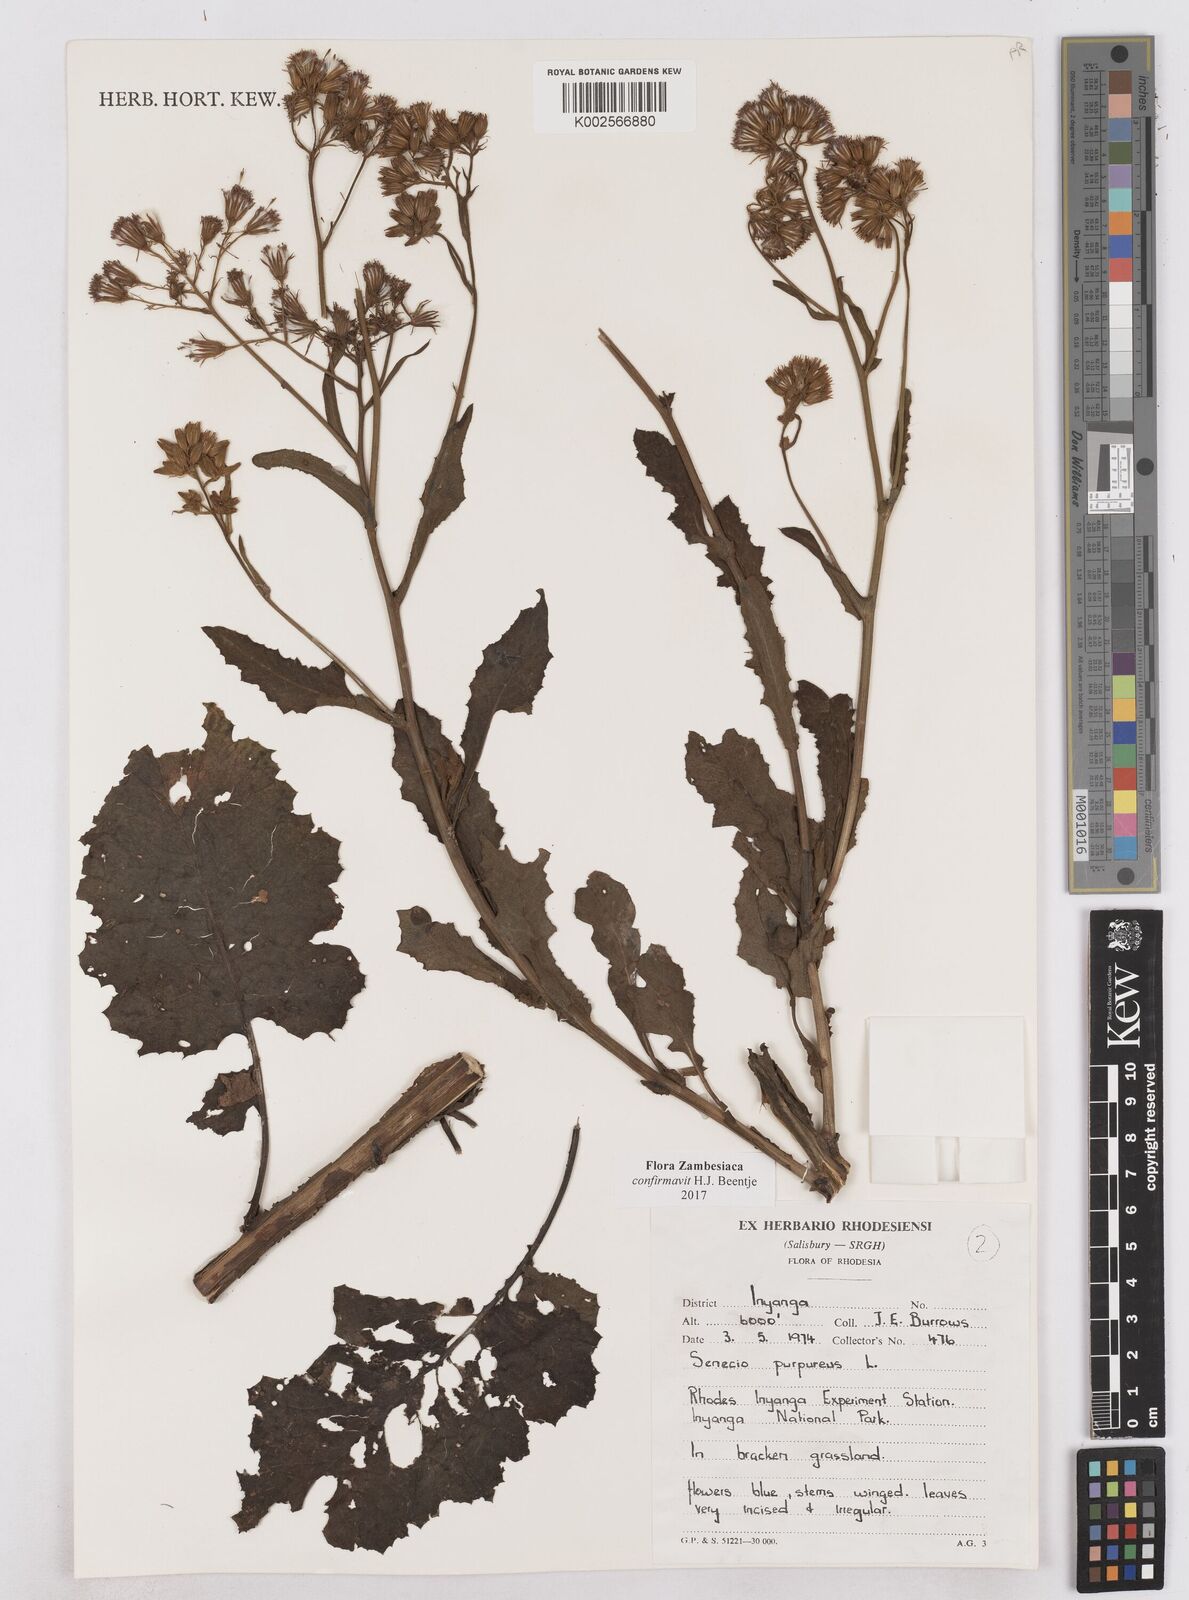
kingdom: Plantae
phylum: Tracheophyta
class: Magnoliopsida
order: Asterales
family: Asteraceae
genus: Senecio
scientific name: Senecio purpureus
